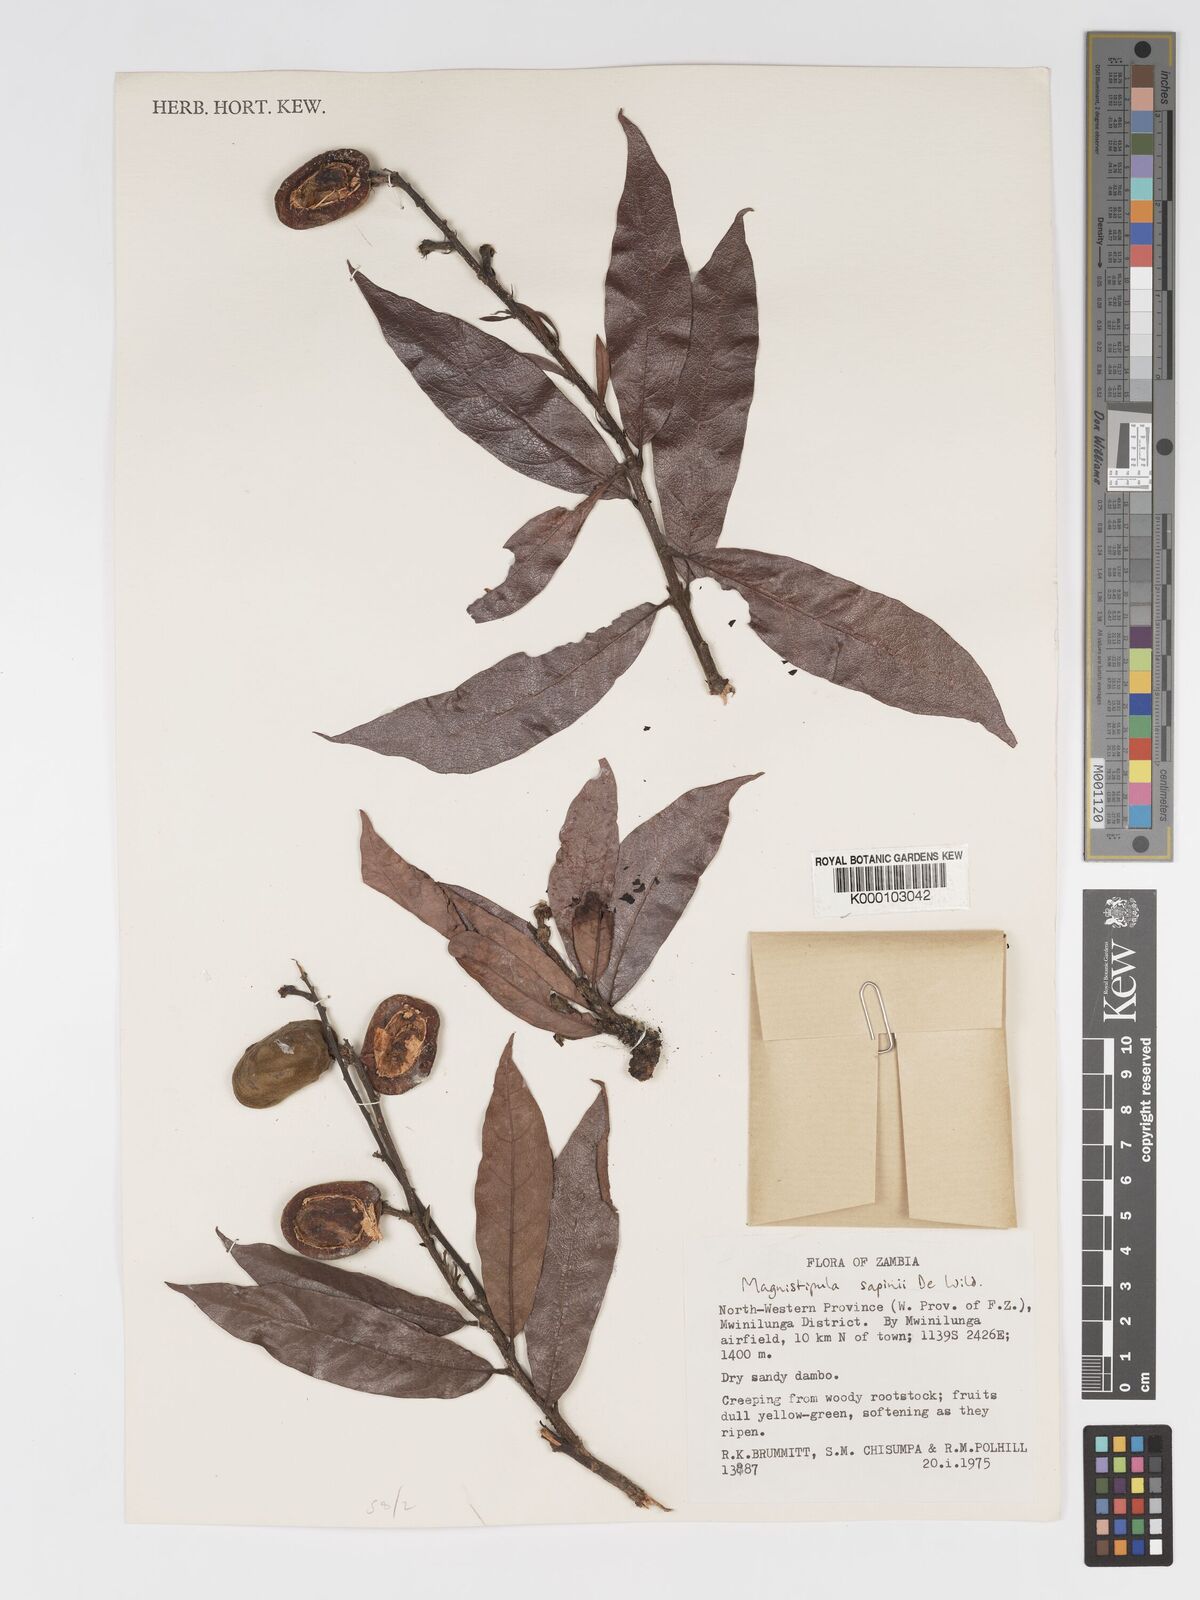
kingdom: Plantae
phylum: Tracheophyta
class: Magnoliopsida
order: Malpighiales
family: Chrysobalanaceae
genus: Magnistipula
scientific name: Magnistipula sapinii
